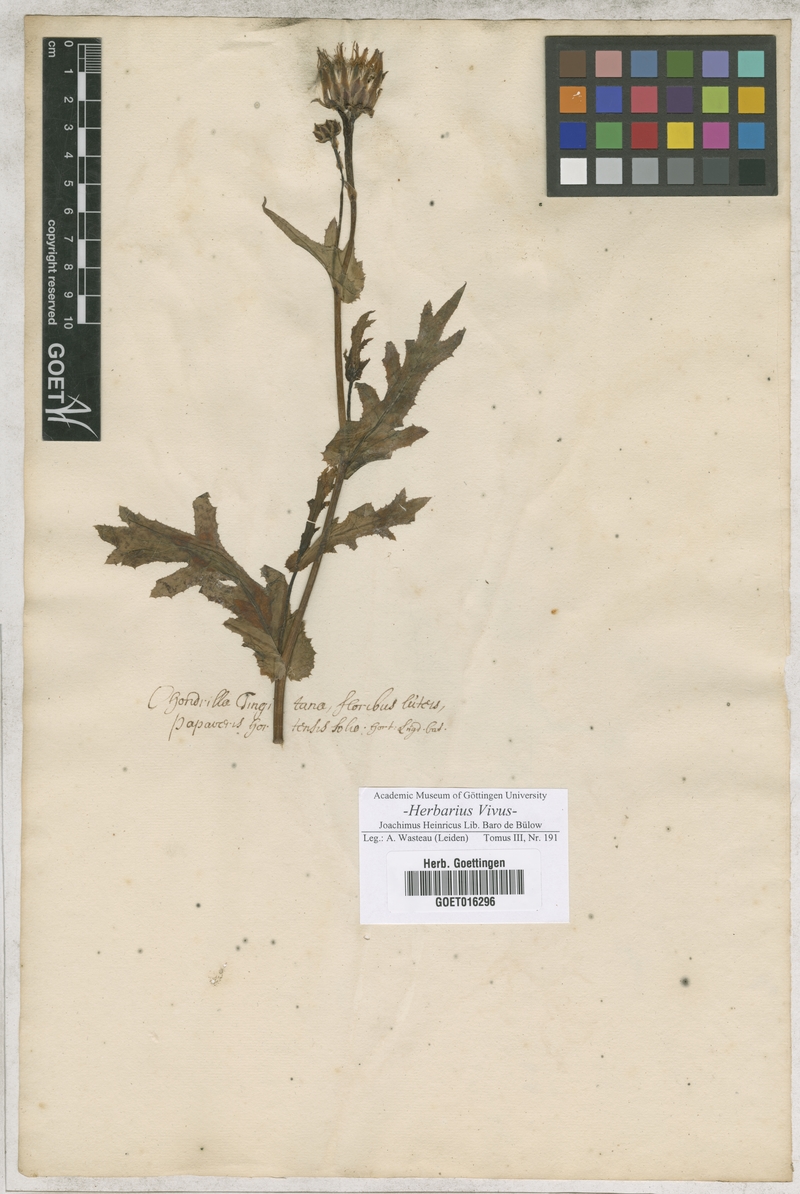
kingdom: Plantae
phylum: Tracheophyta
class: Magnoliopsida
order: Asterales
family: Asteraceae
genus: Reichardia
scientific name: Reichardia tingitana
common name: Reichardia
